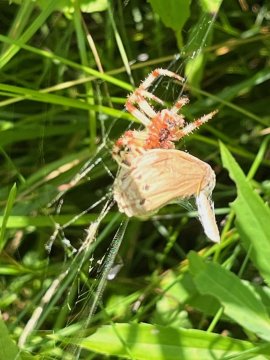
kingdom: Animalia
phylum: Arthropoda
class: Insecta
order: Lepidoptera
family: Nymphalidae
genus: Lethe
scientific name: Lethe eurydice
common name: Eyed Brown
